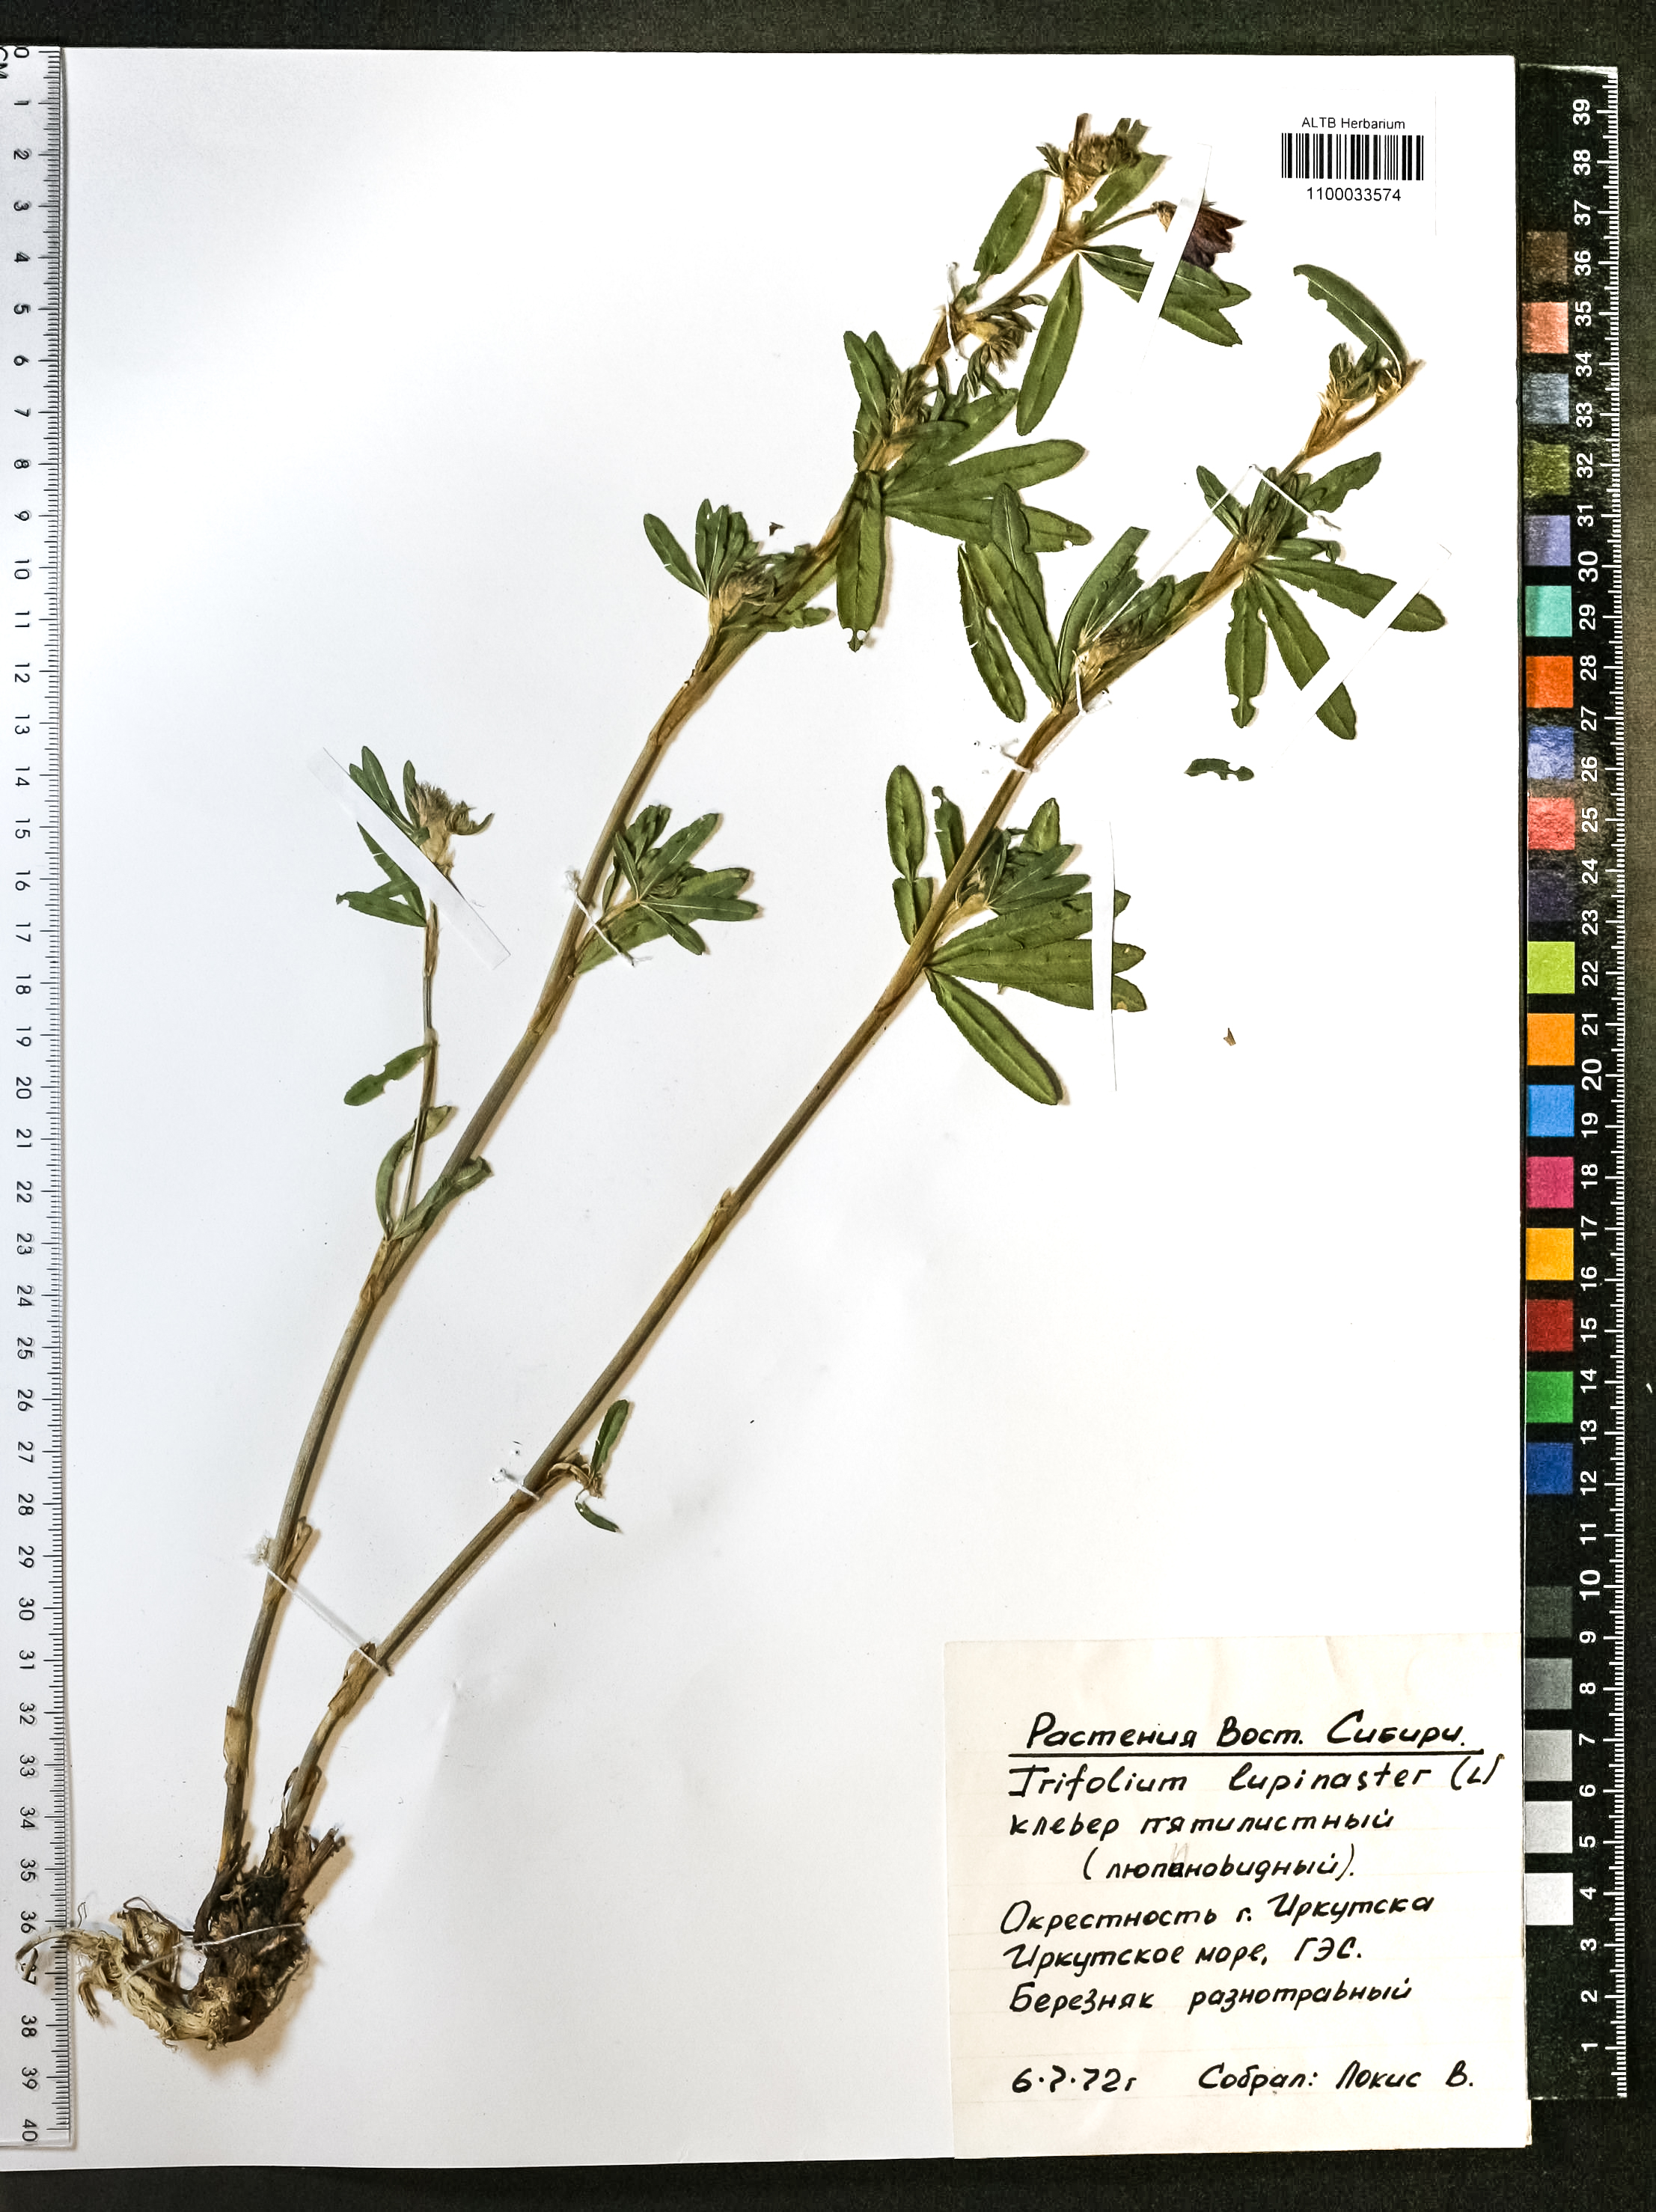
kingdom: Plantae
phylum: Tracheophyta
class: Magnoliopsida
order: Fabales
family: Fabaceae
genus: Trifolium
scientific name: Trifolium lupinaster
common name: Lupine clover
